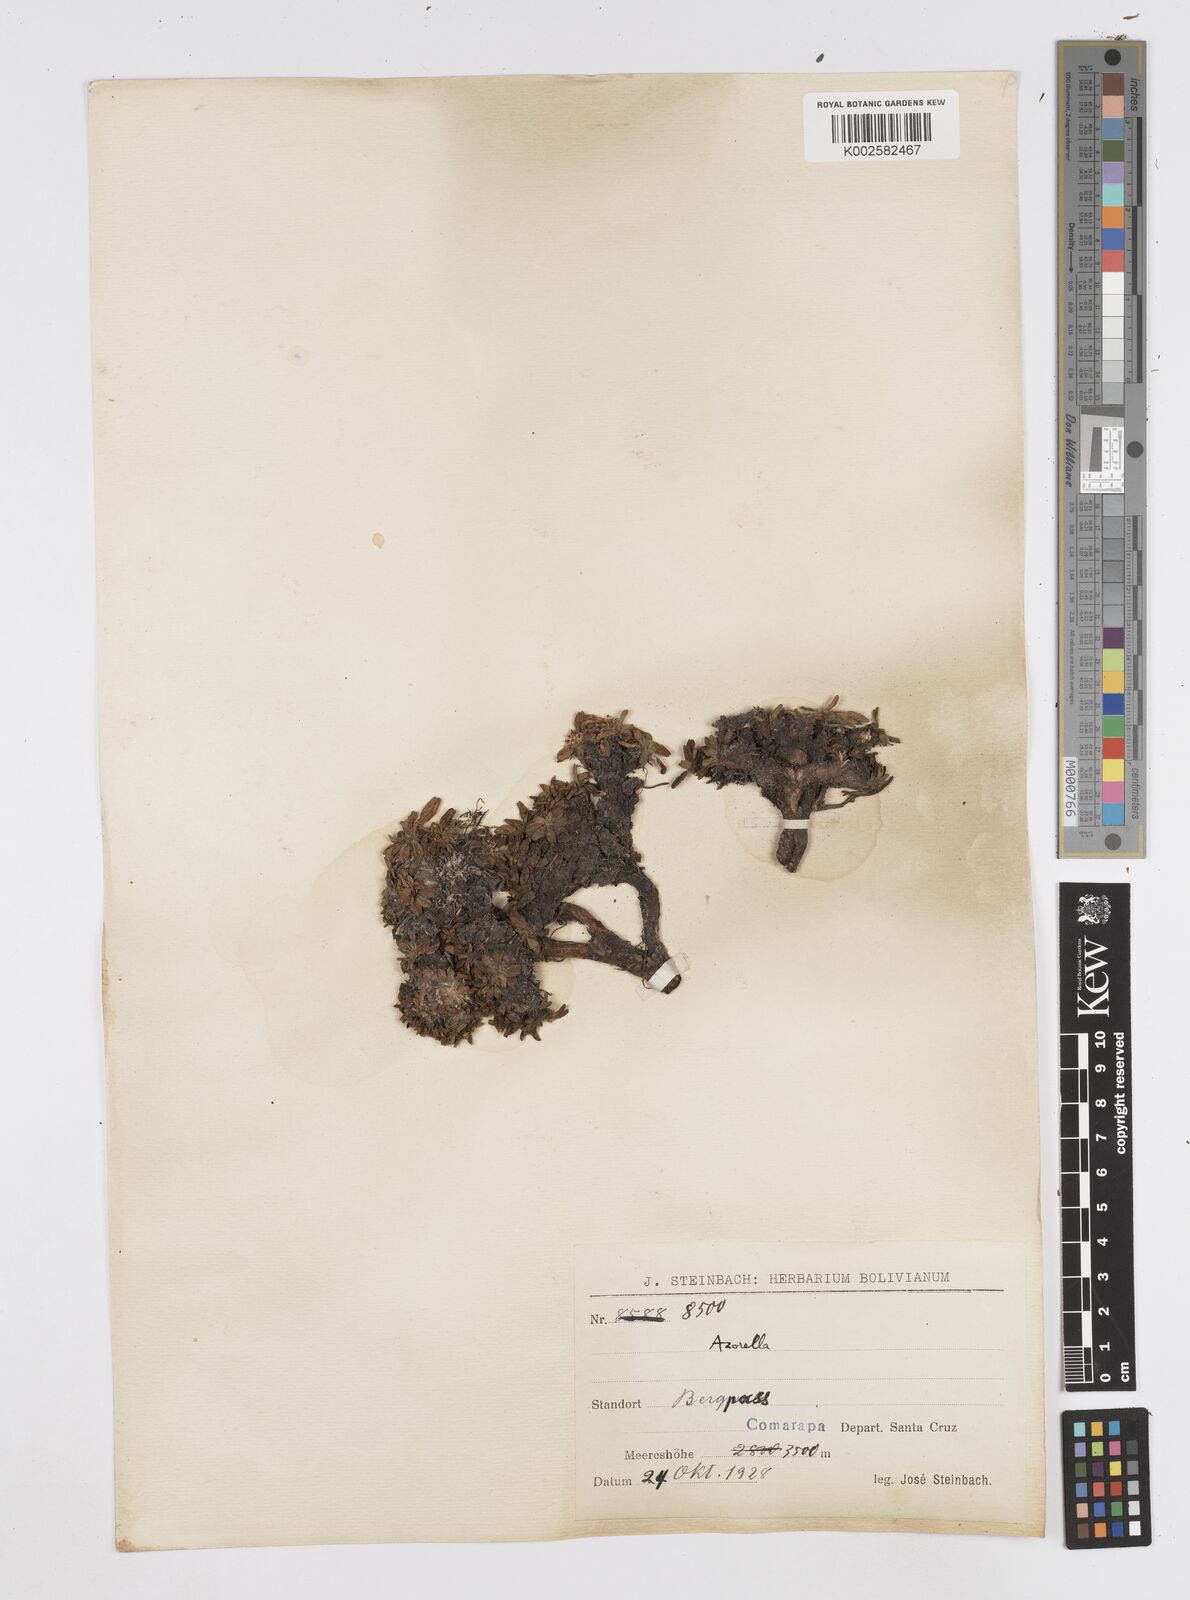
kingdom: Plantae
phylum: Tracheophyta
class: Magnoliopsida
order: Apiales
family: Apiaceae
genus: Azorella
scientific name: Azorella biloba
